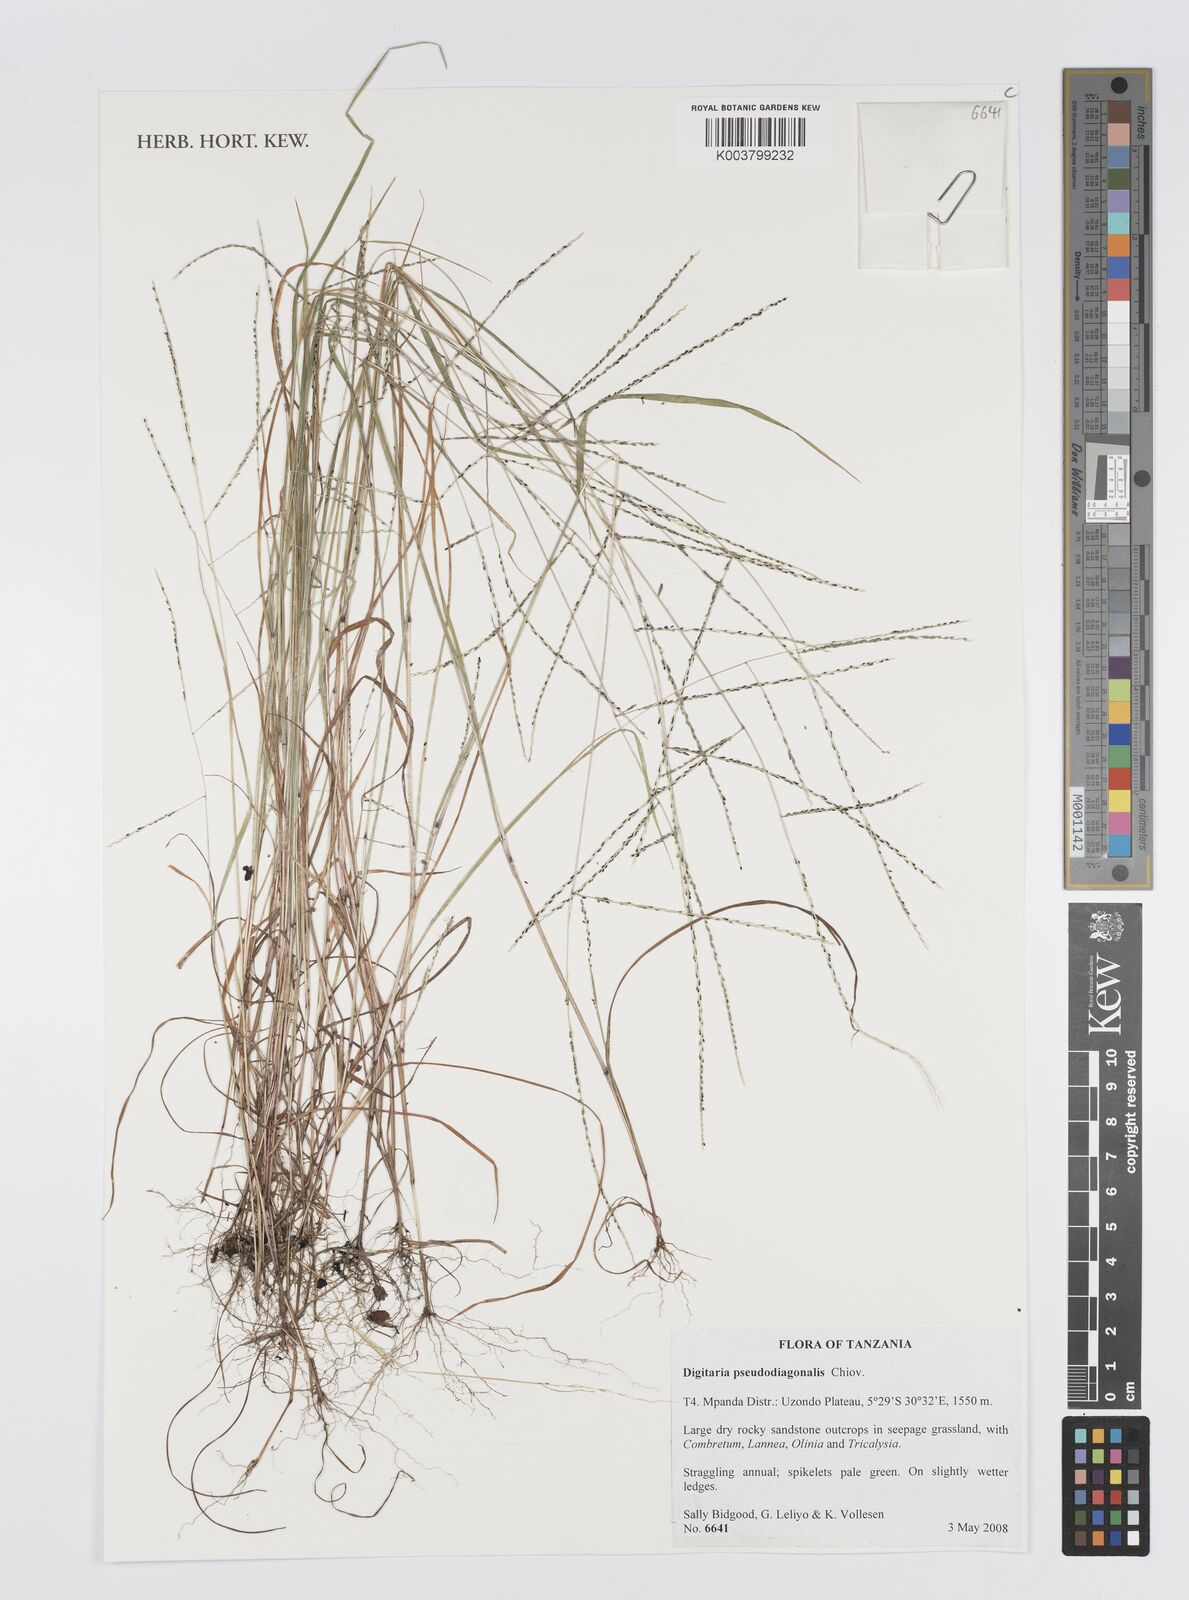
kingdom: Plantae
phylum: Tracheophyta
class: Liliopsida
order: Poales
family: Poaceae
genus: Digitaria
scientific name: Digitaria pseudodiagonalis
